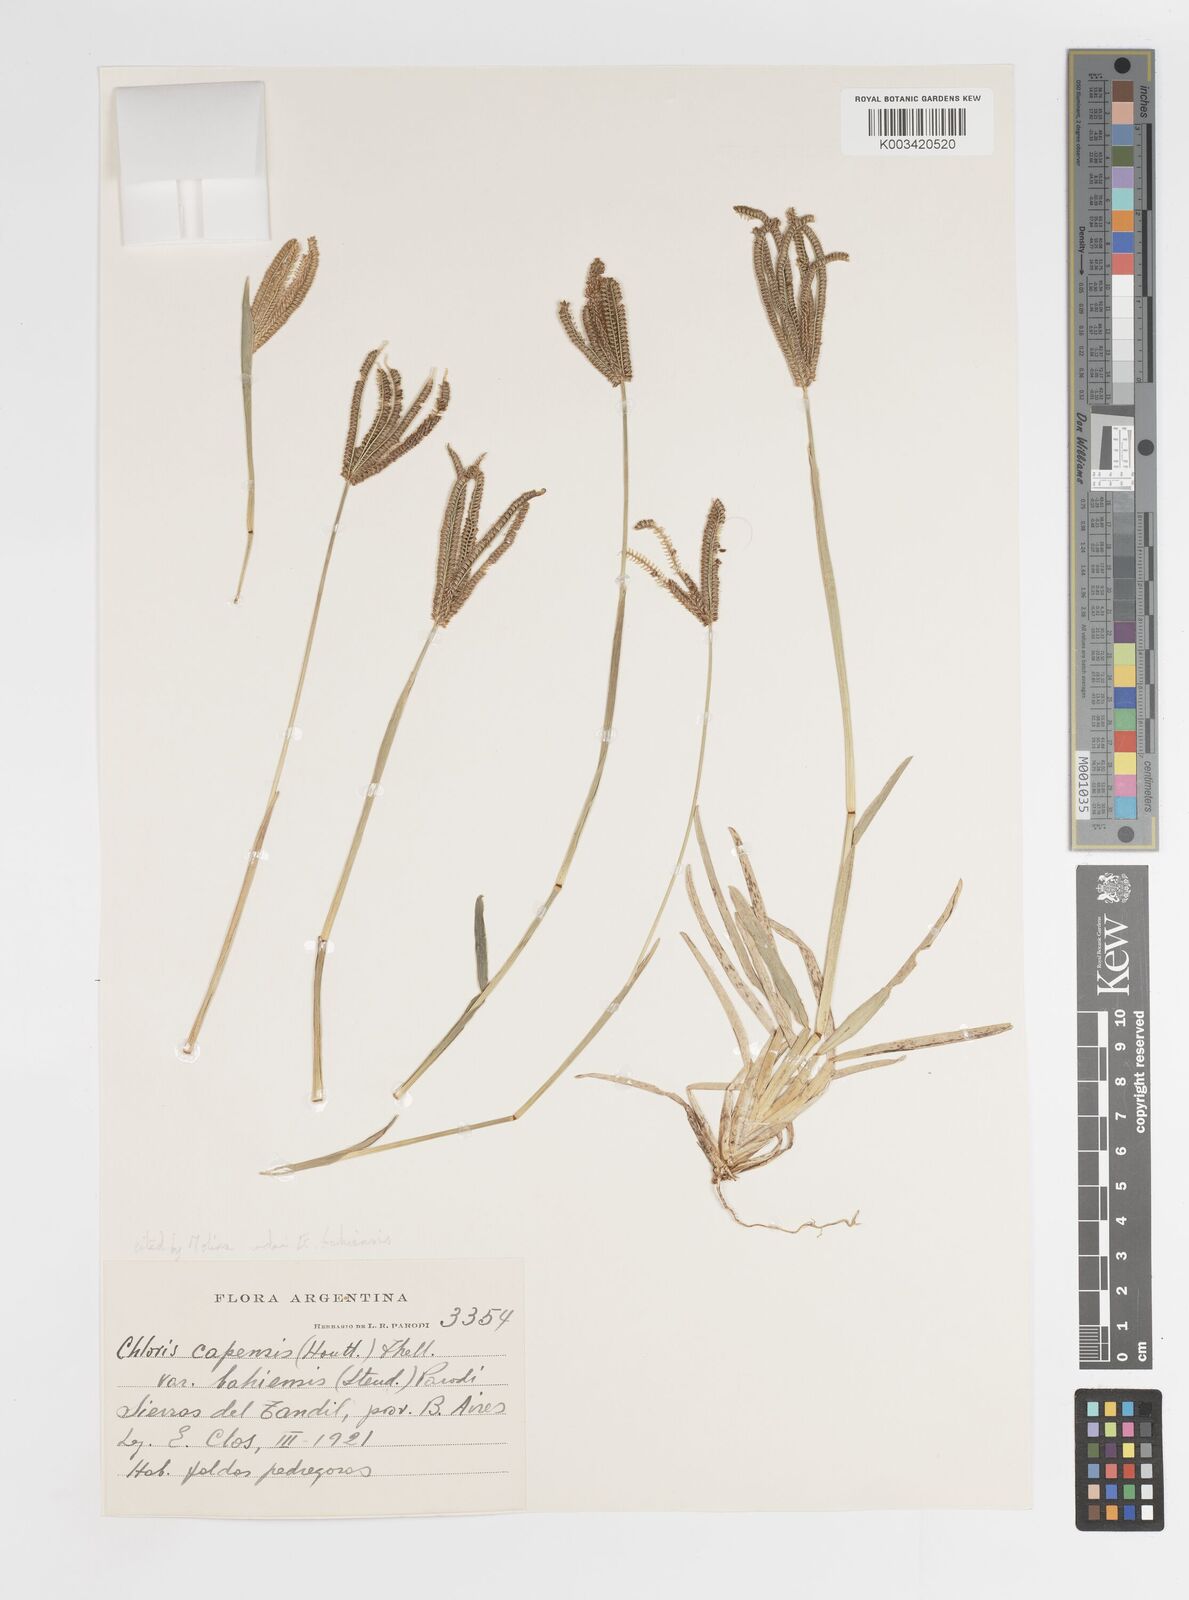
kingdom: Plantae
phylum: Tracheophyta
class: Liliopsida
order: Poales
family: Poaceae
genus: Eustachys
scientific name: Eustachys bahiensis
